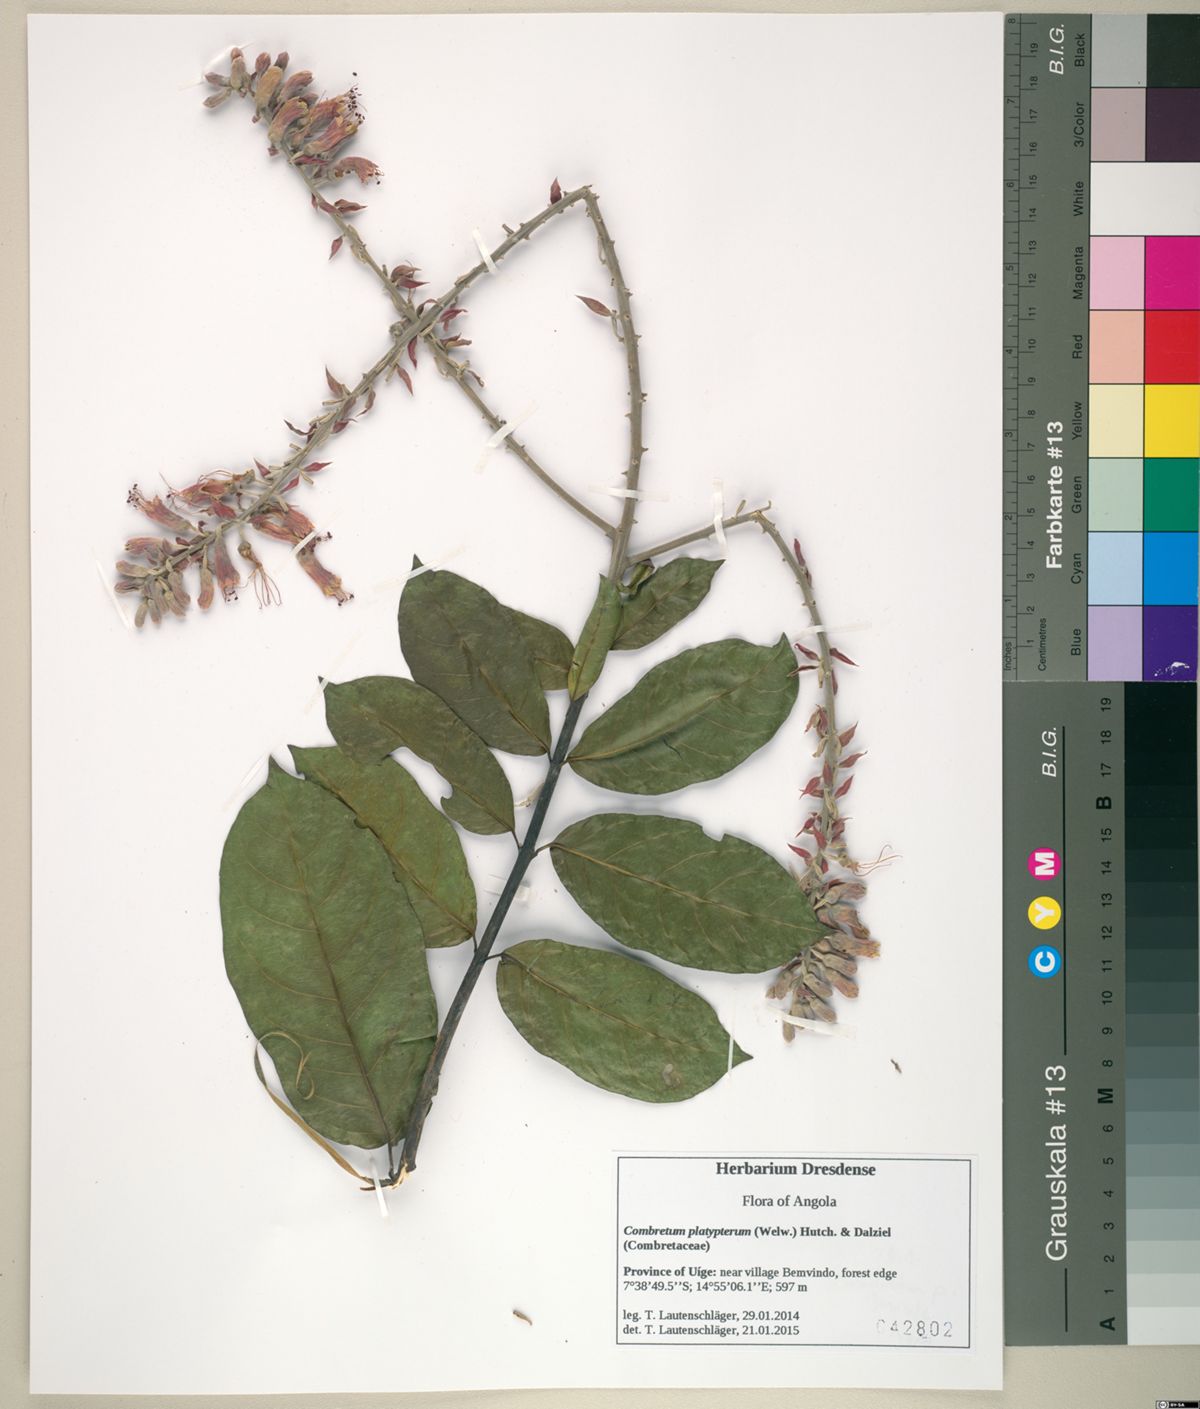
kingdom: Plantae
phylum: Tracheophyta
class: Magnoliopsida
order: Myrtales
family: Combretaceae
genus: Combretum
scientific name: Combretum platypterum
